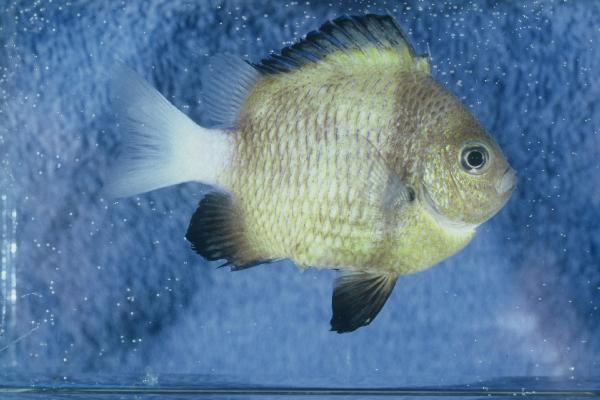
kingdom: Animalia
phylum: Chordata
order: Perciformes
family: Pomacentridae
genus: Dascyllus
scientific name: Dascyllus carneus
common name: Indian dascyllus
